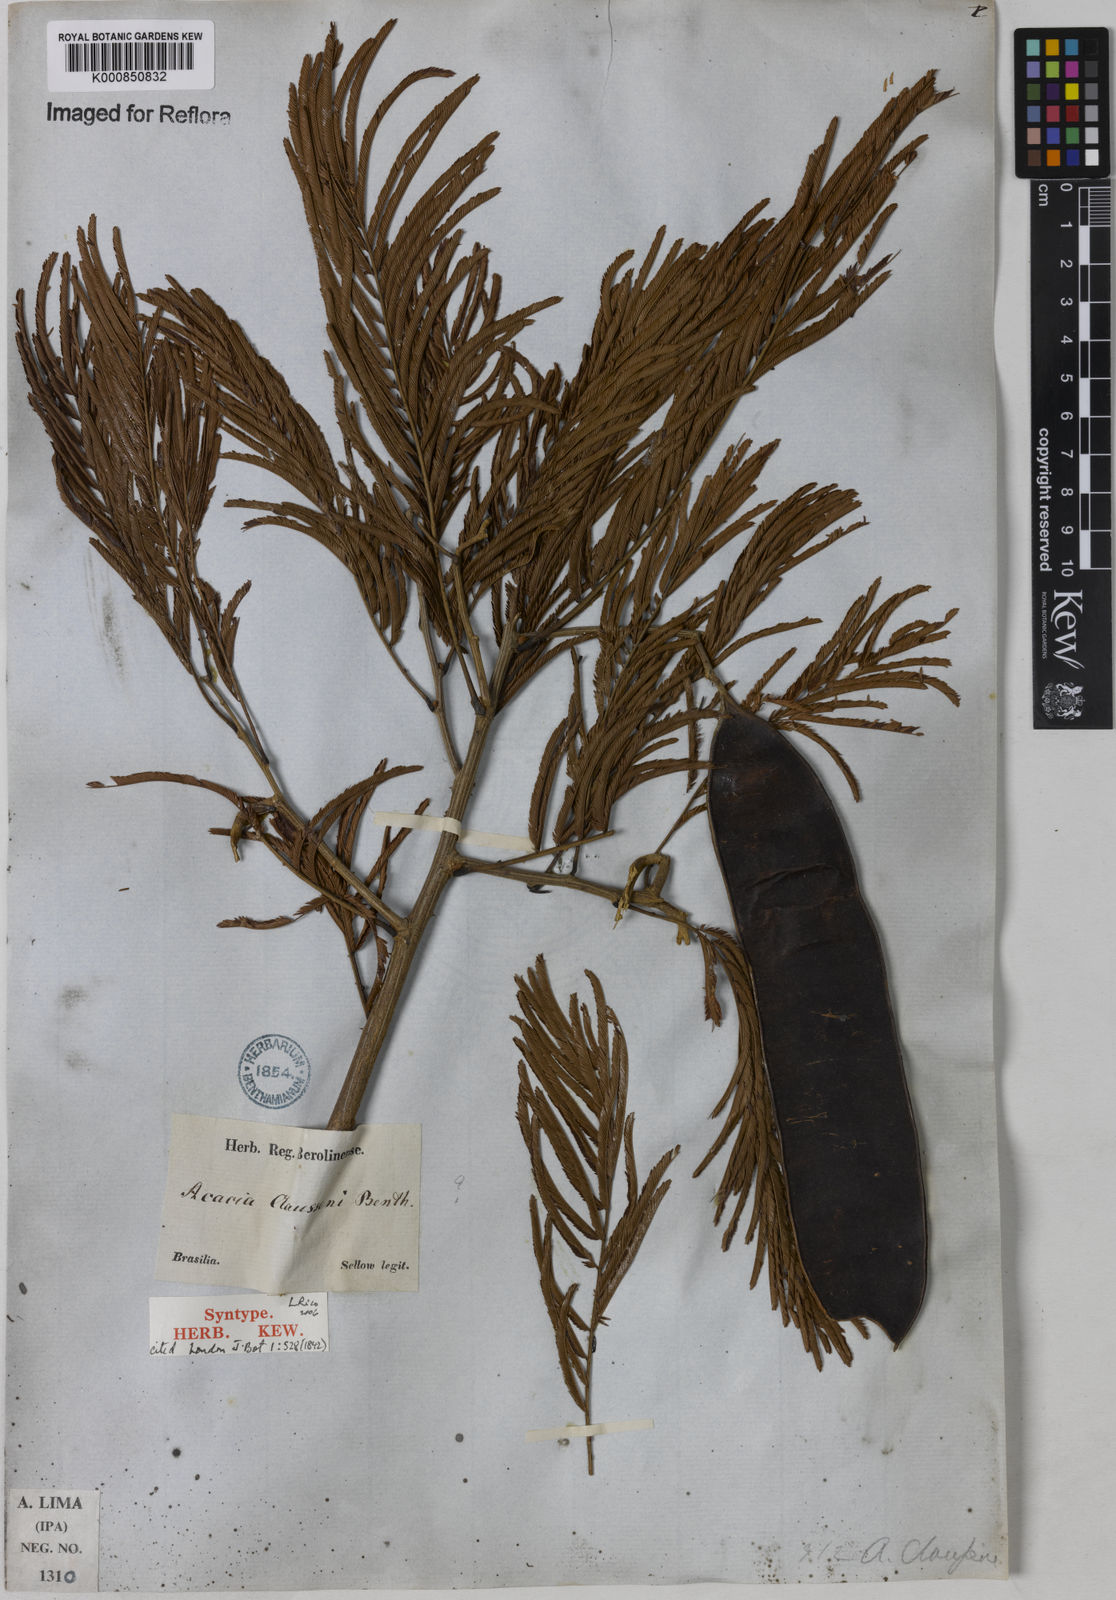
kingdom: Plantae
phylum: Tracheophyta
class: Magnoliopsida
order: Fabales
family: Fabaceae
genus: Senegalia
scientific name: Senegalia tenuifolia
